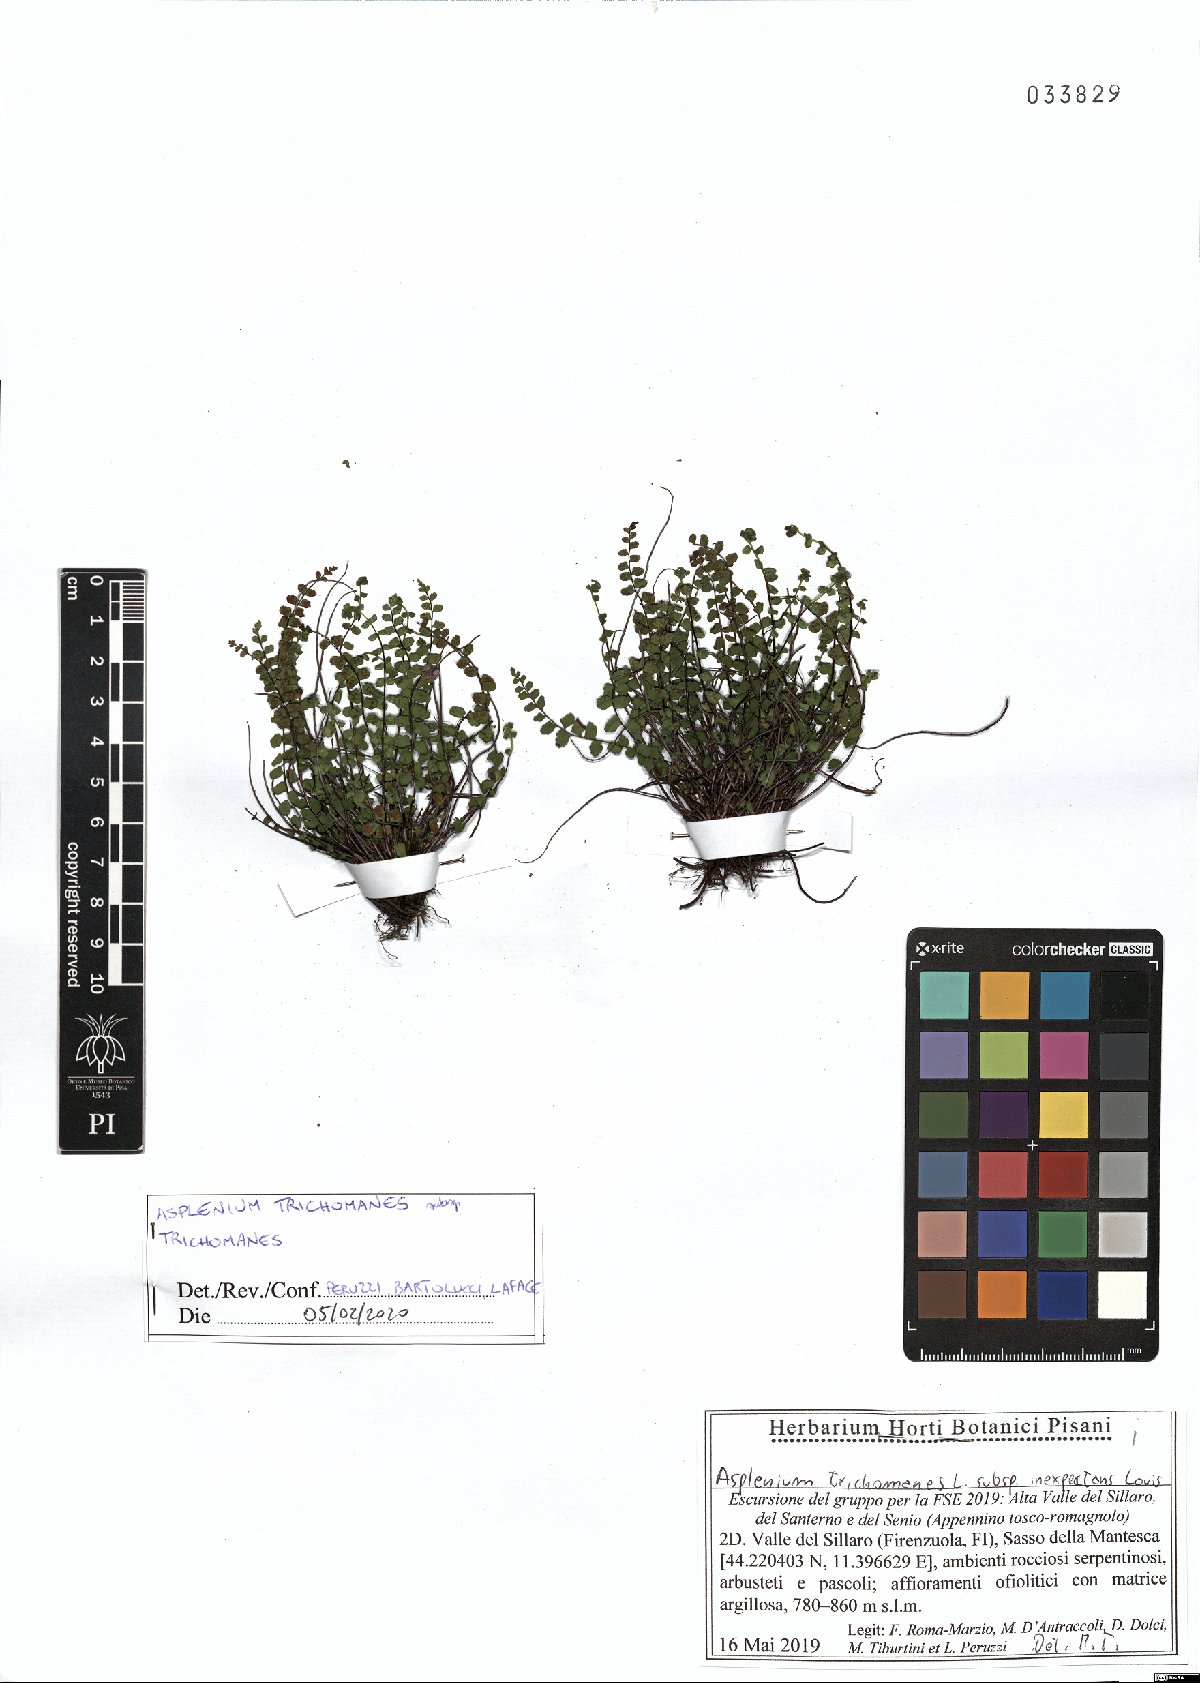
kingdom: Plantae
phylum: Tracheophyta
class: Polypodiopsida
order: Polypodiales
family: Aspleniaceae
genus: Asplenium
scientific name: Asplenium trichomanes
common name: Maidenhair spleenwort
